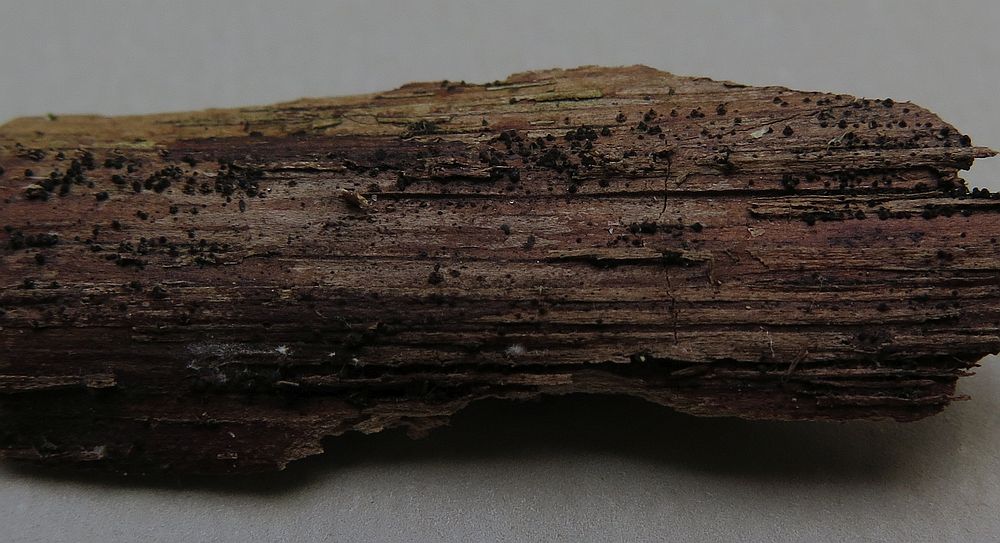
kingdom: Fungi
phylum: Ascomycota
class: Dothideomycetes
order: Pleosporales
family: Melanommataceae
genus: Melanomma
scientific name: Melanomma pulvis-pyrius
